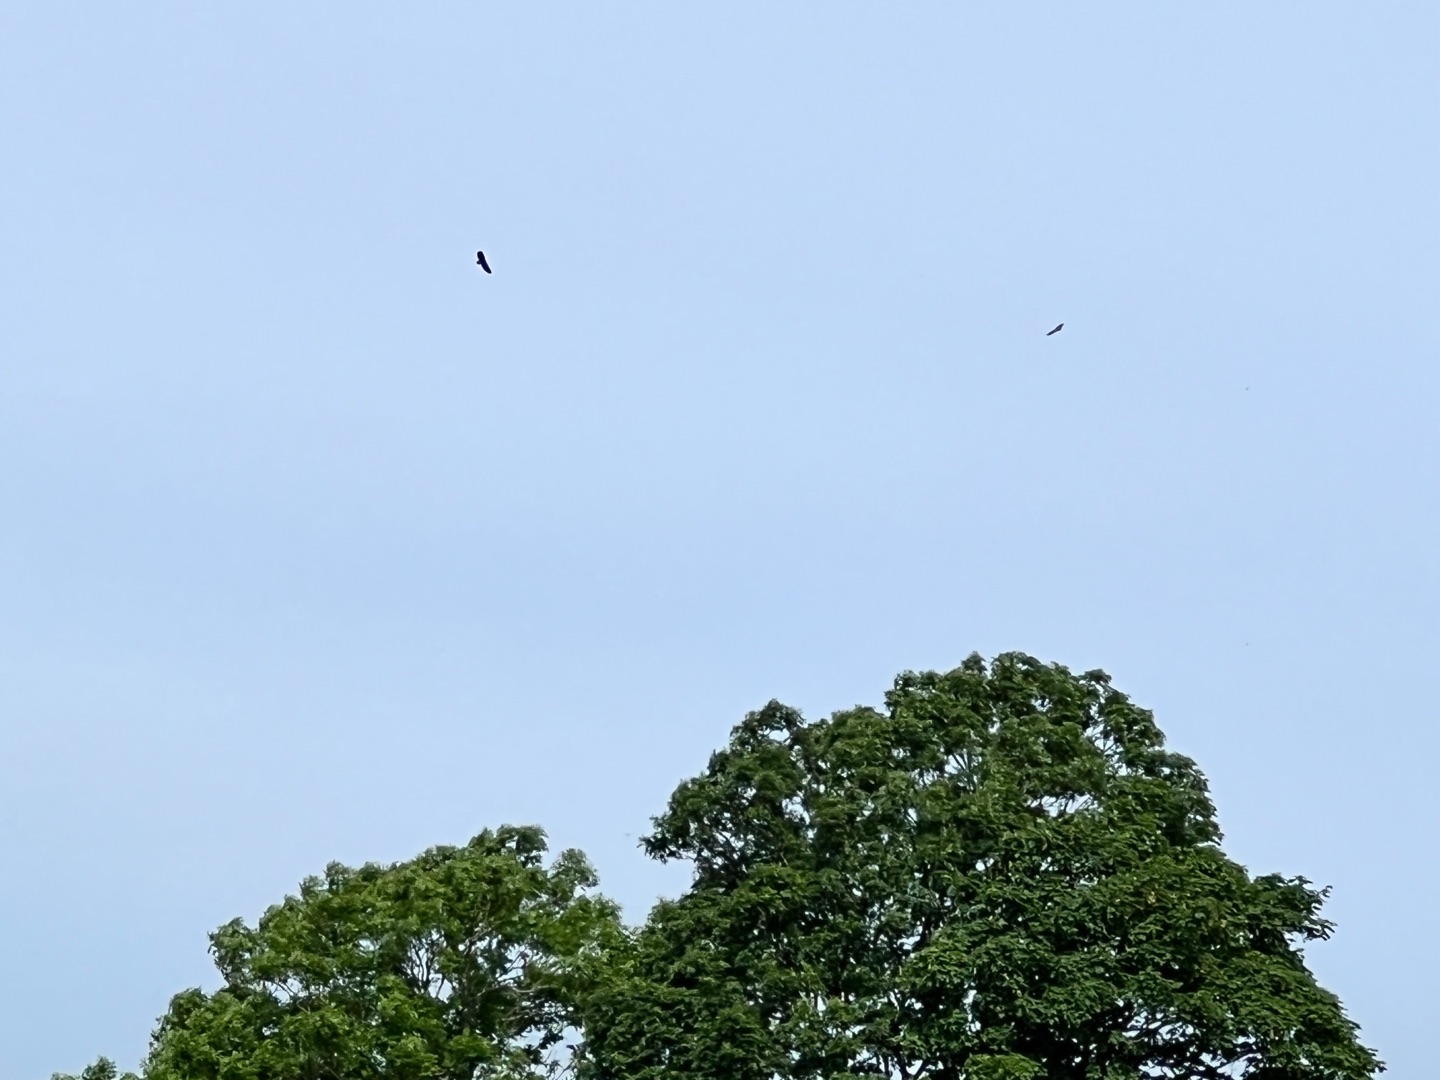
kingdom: Animalia
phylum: Chordata
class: Aves
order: Accipitriformes
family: Accipitridae
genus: Haliaeetus
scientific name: Haliaeetus albicilla
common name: Havørn
